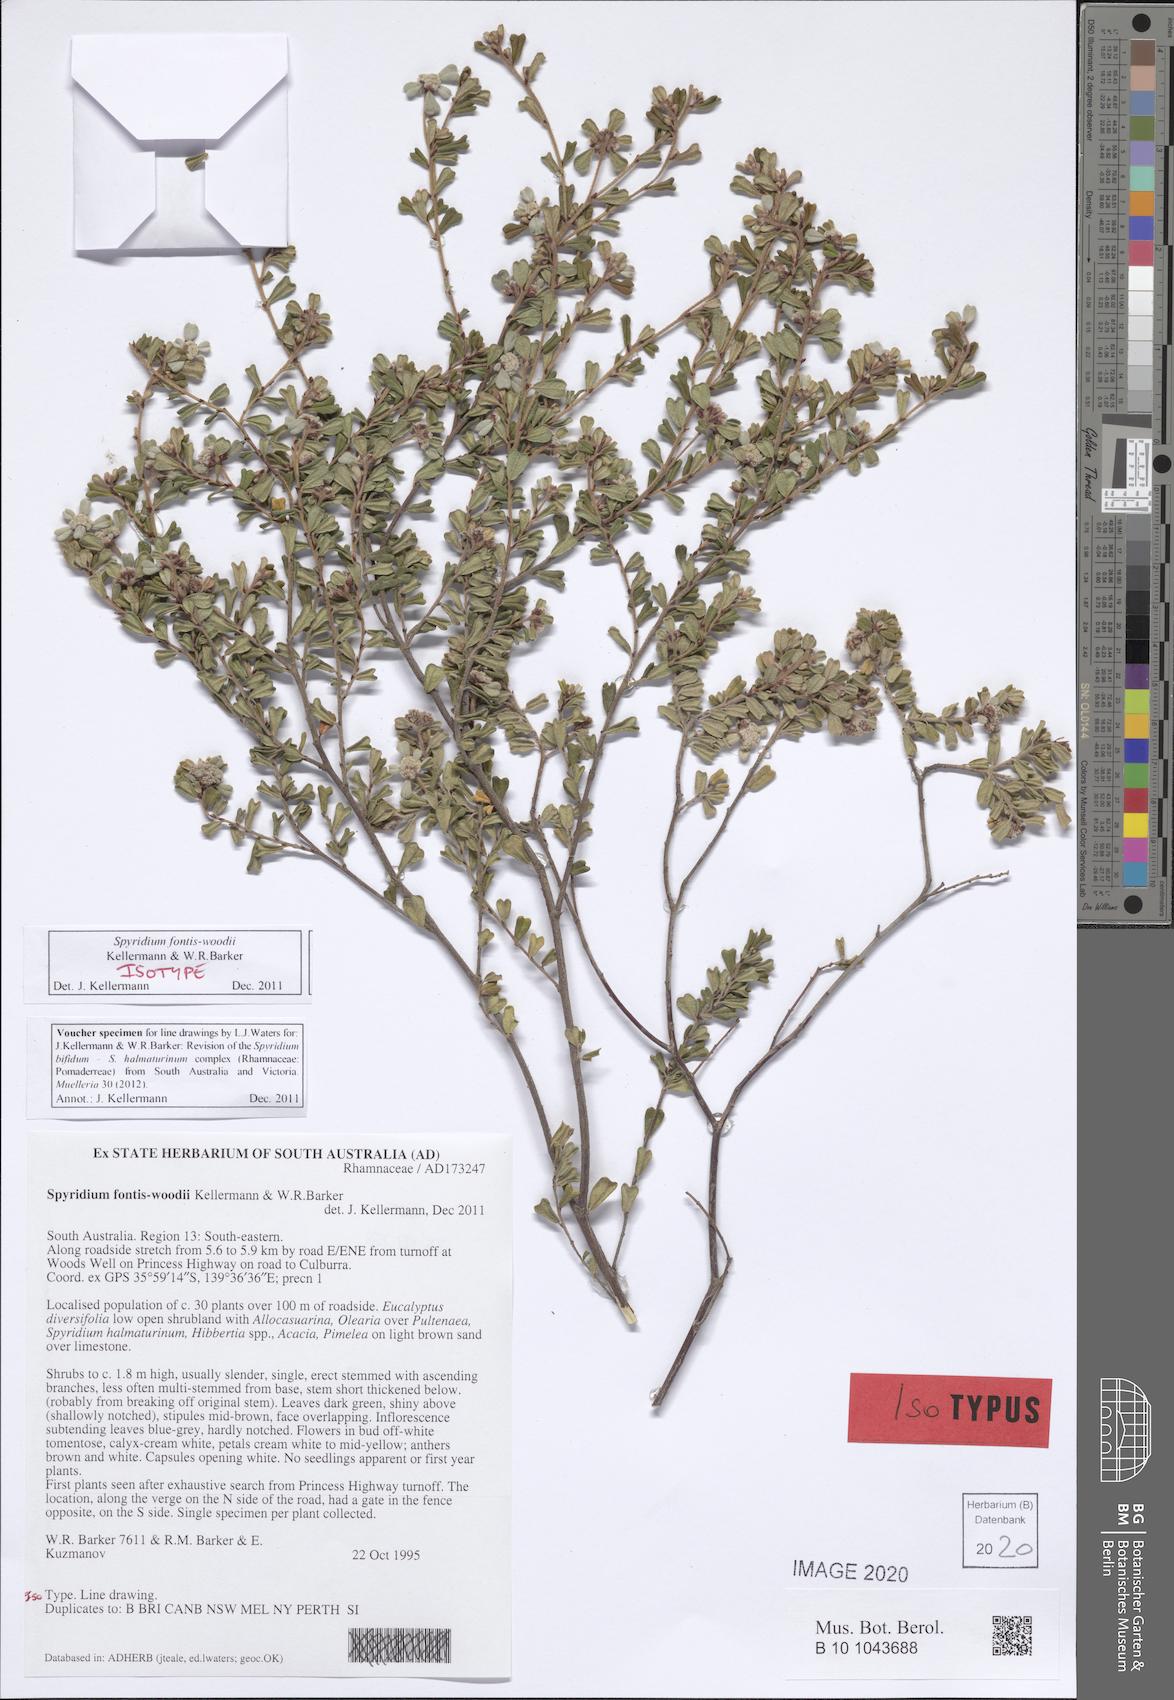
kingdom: Plantae
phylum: Tracheophyta
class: Magnoliopsida
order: Rosales
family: Rhamnaceae
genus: Spyridium
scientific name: Spyridium fontis-woodii
